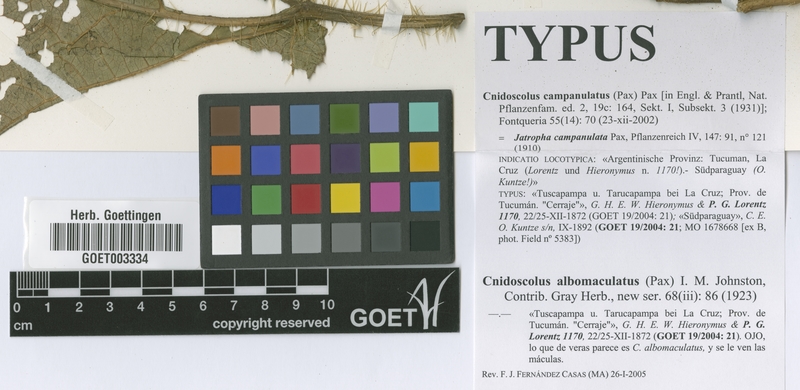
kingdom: Plantae
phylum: Tracheophyta
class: Magnoliopsida
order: Malpighiales
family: Euphorbiaceae
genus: Cnidoscolus
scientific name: Cnidoscolus albomaculatus
